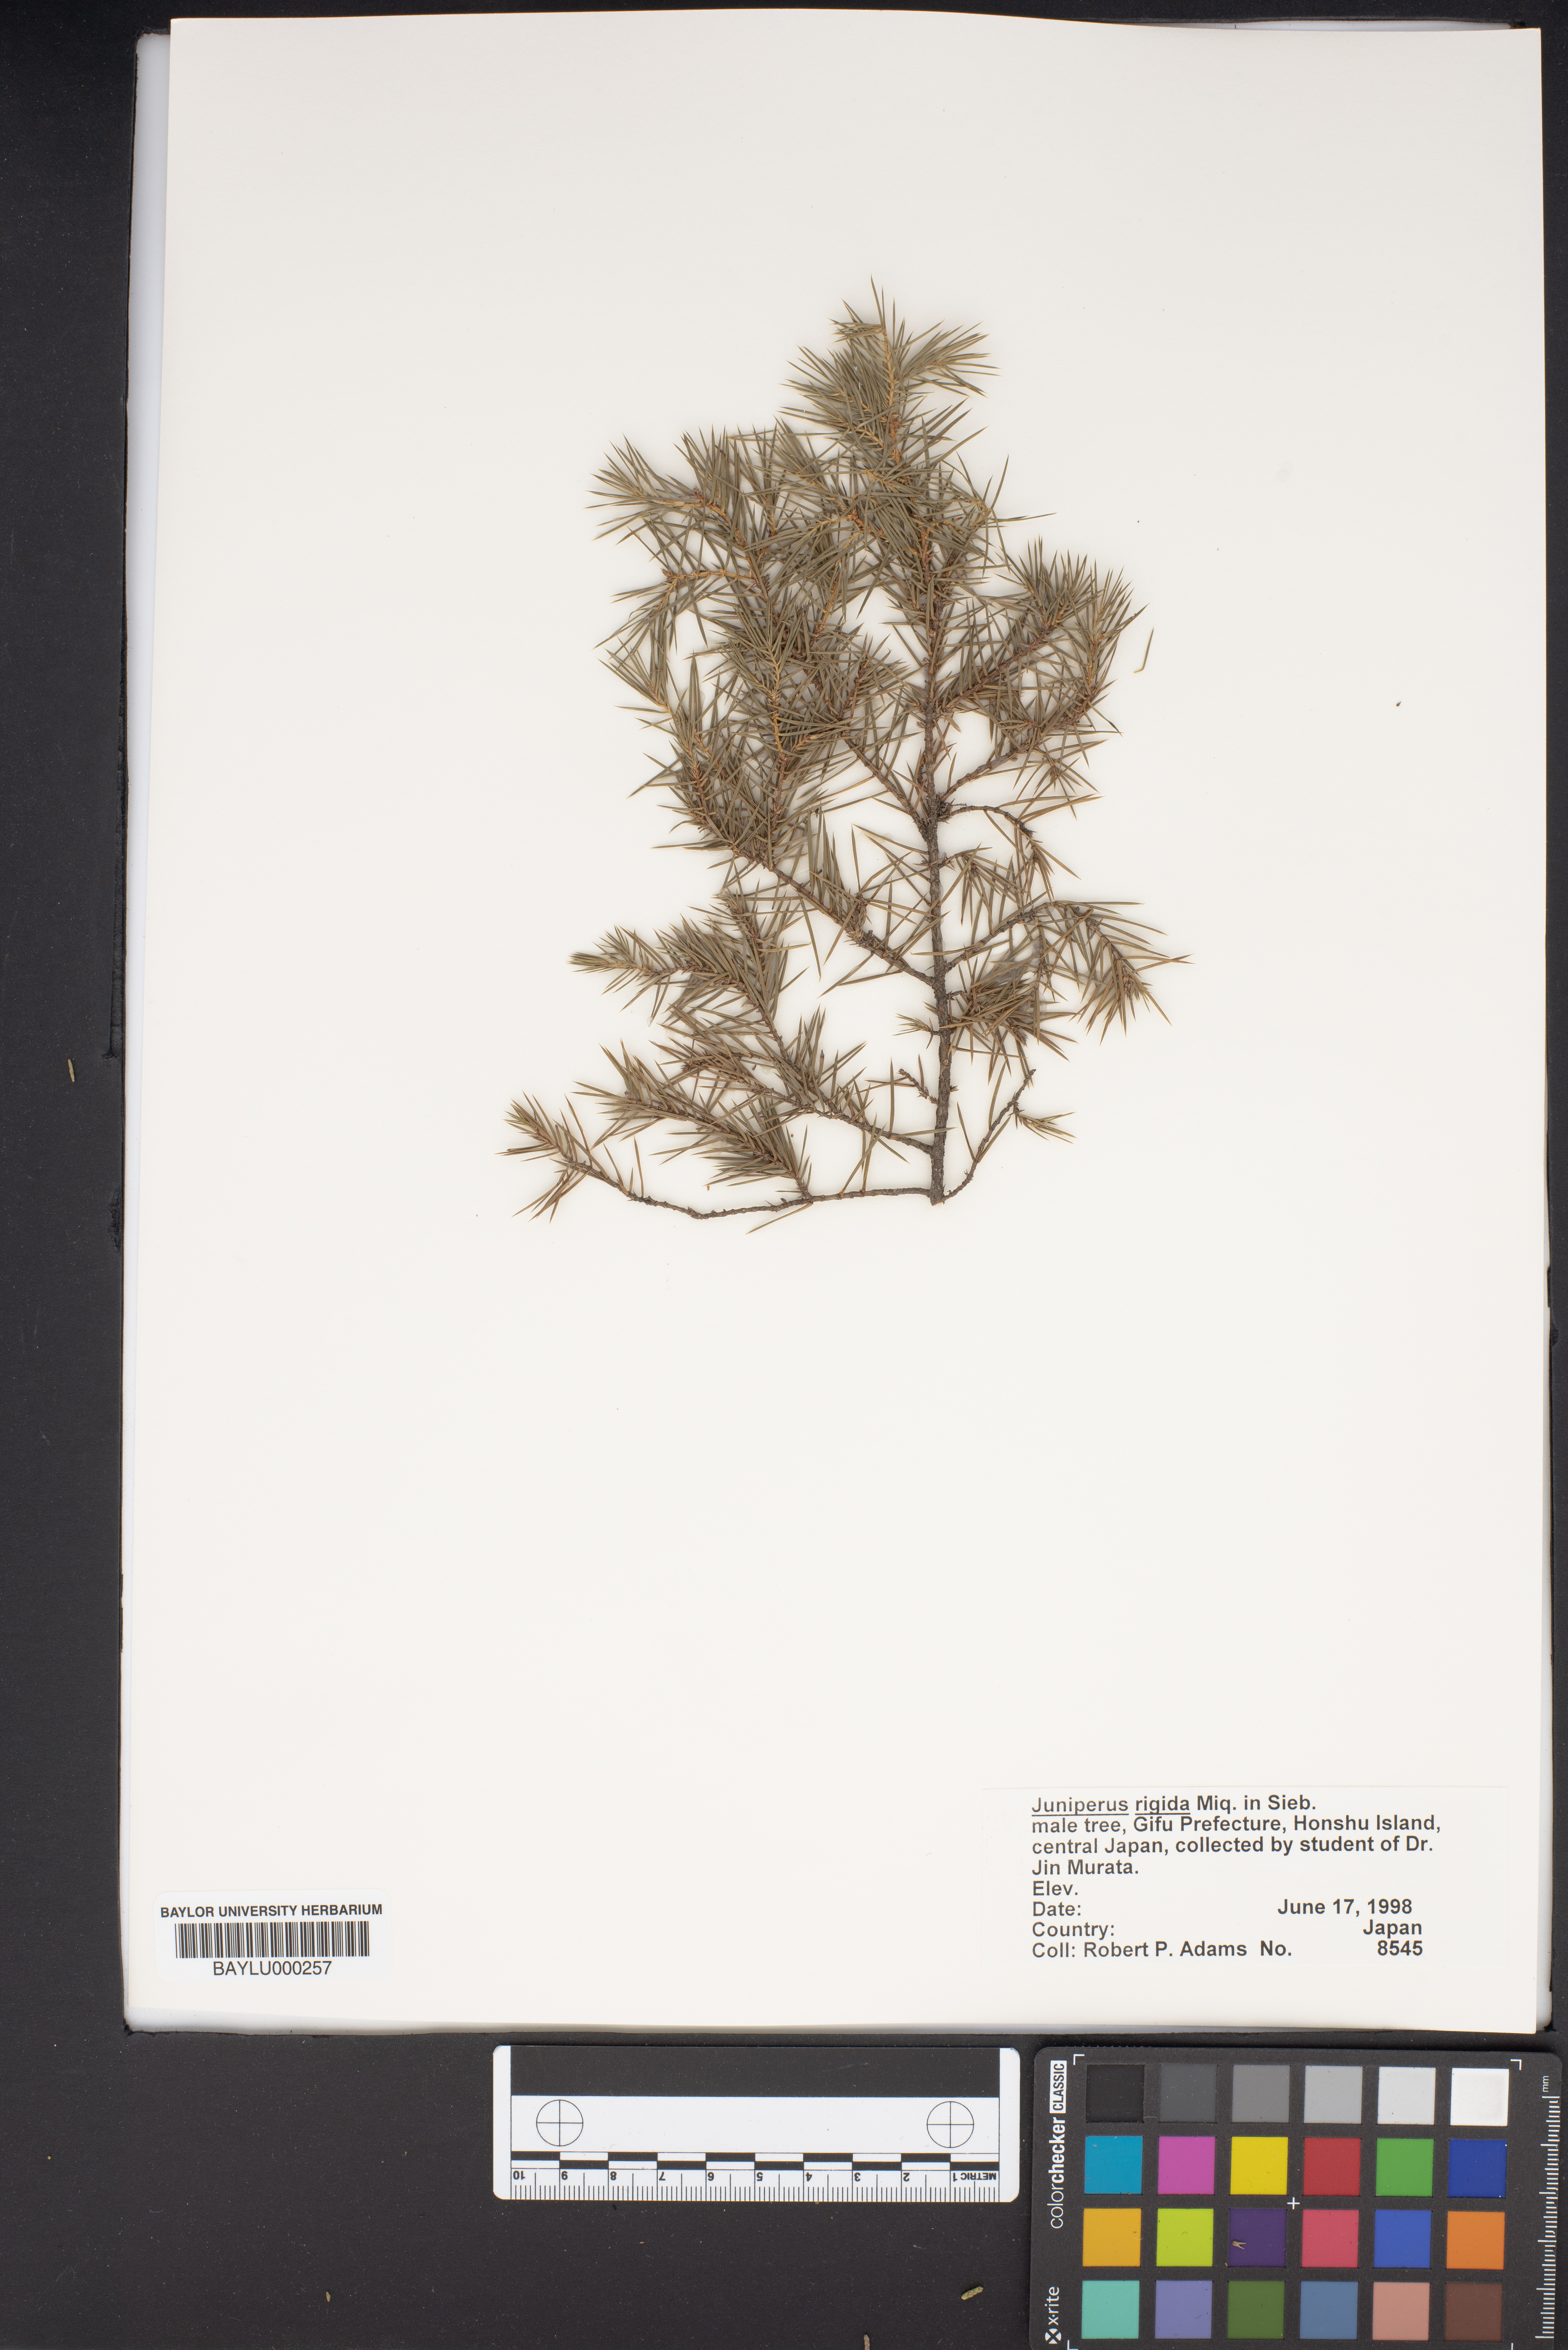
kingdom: Plantae
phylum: Tracheophyta
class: Pinopsida
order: Pinales
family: Cupressaceae
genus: Juniperus
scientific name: Juniperus rigida
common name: Needle juniper
